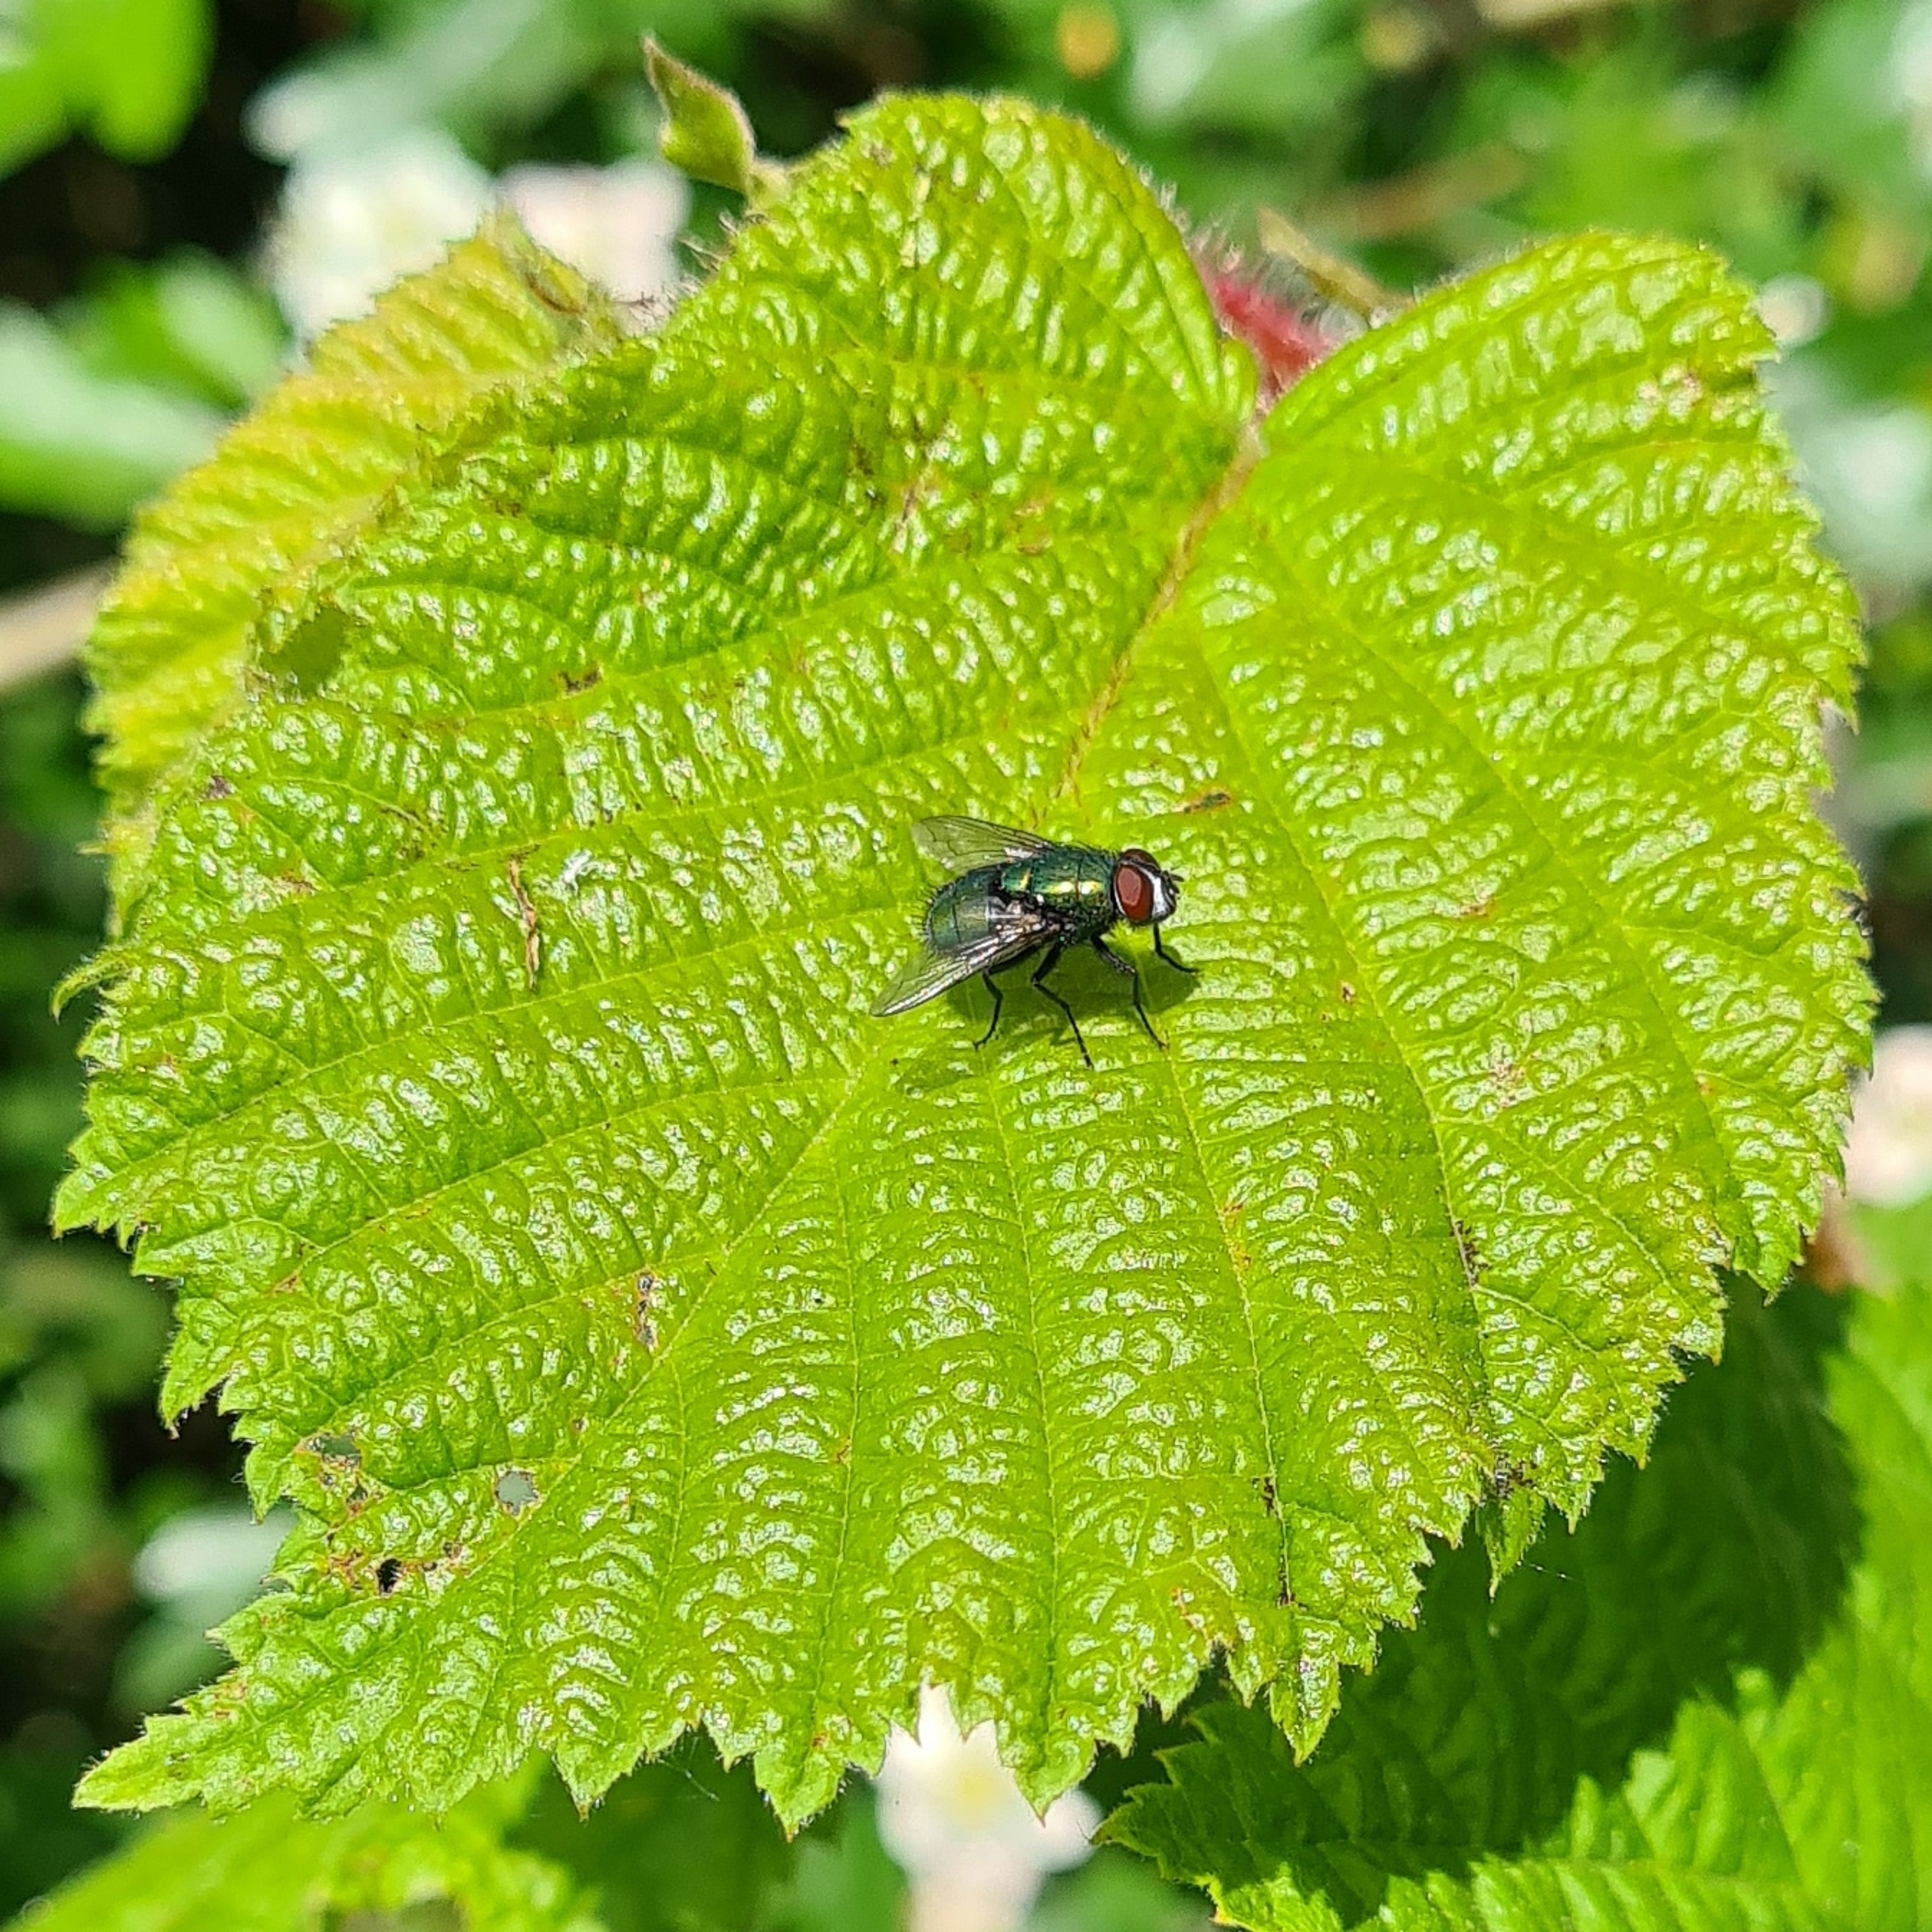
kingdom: Animalia
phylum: Arthropoda
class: Insecta
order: Diptera
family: Calliphoridae
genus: Lucilia
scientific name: Lucilia
